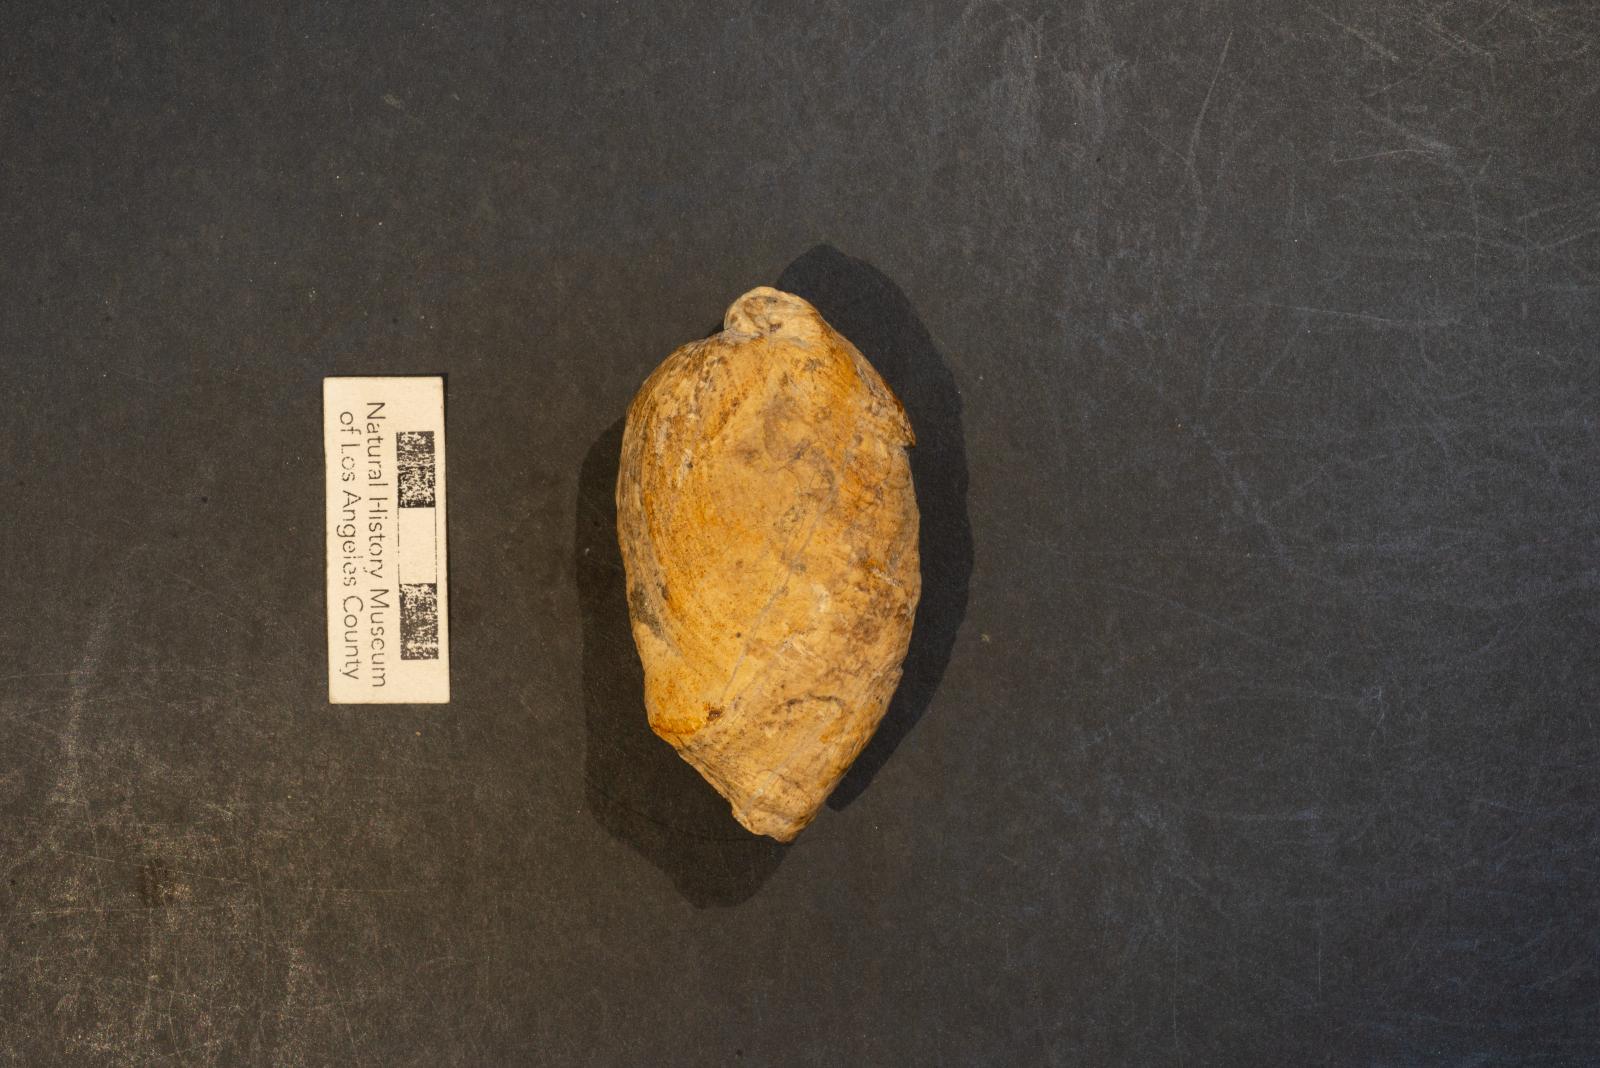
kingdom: Animalia
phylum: Mollusca
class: Gastropoda
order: Littorinimorpha
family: Calyptraeidae
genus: Lysis
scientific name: Lysis Stomatia suciensis
